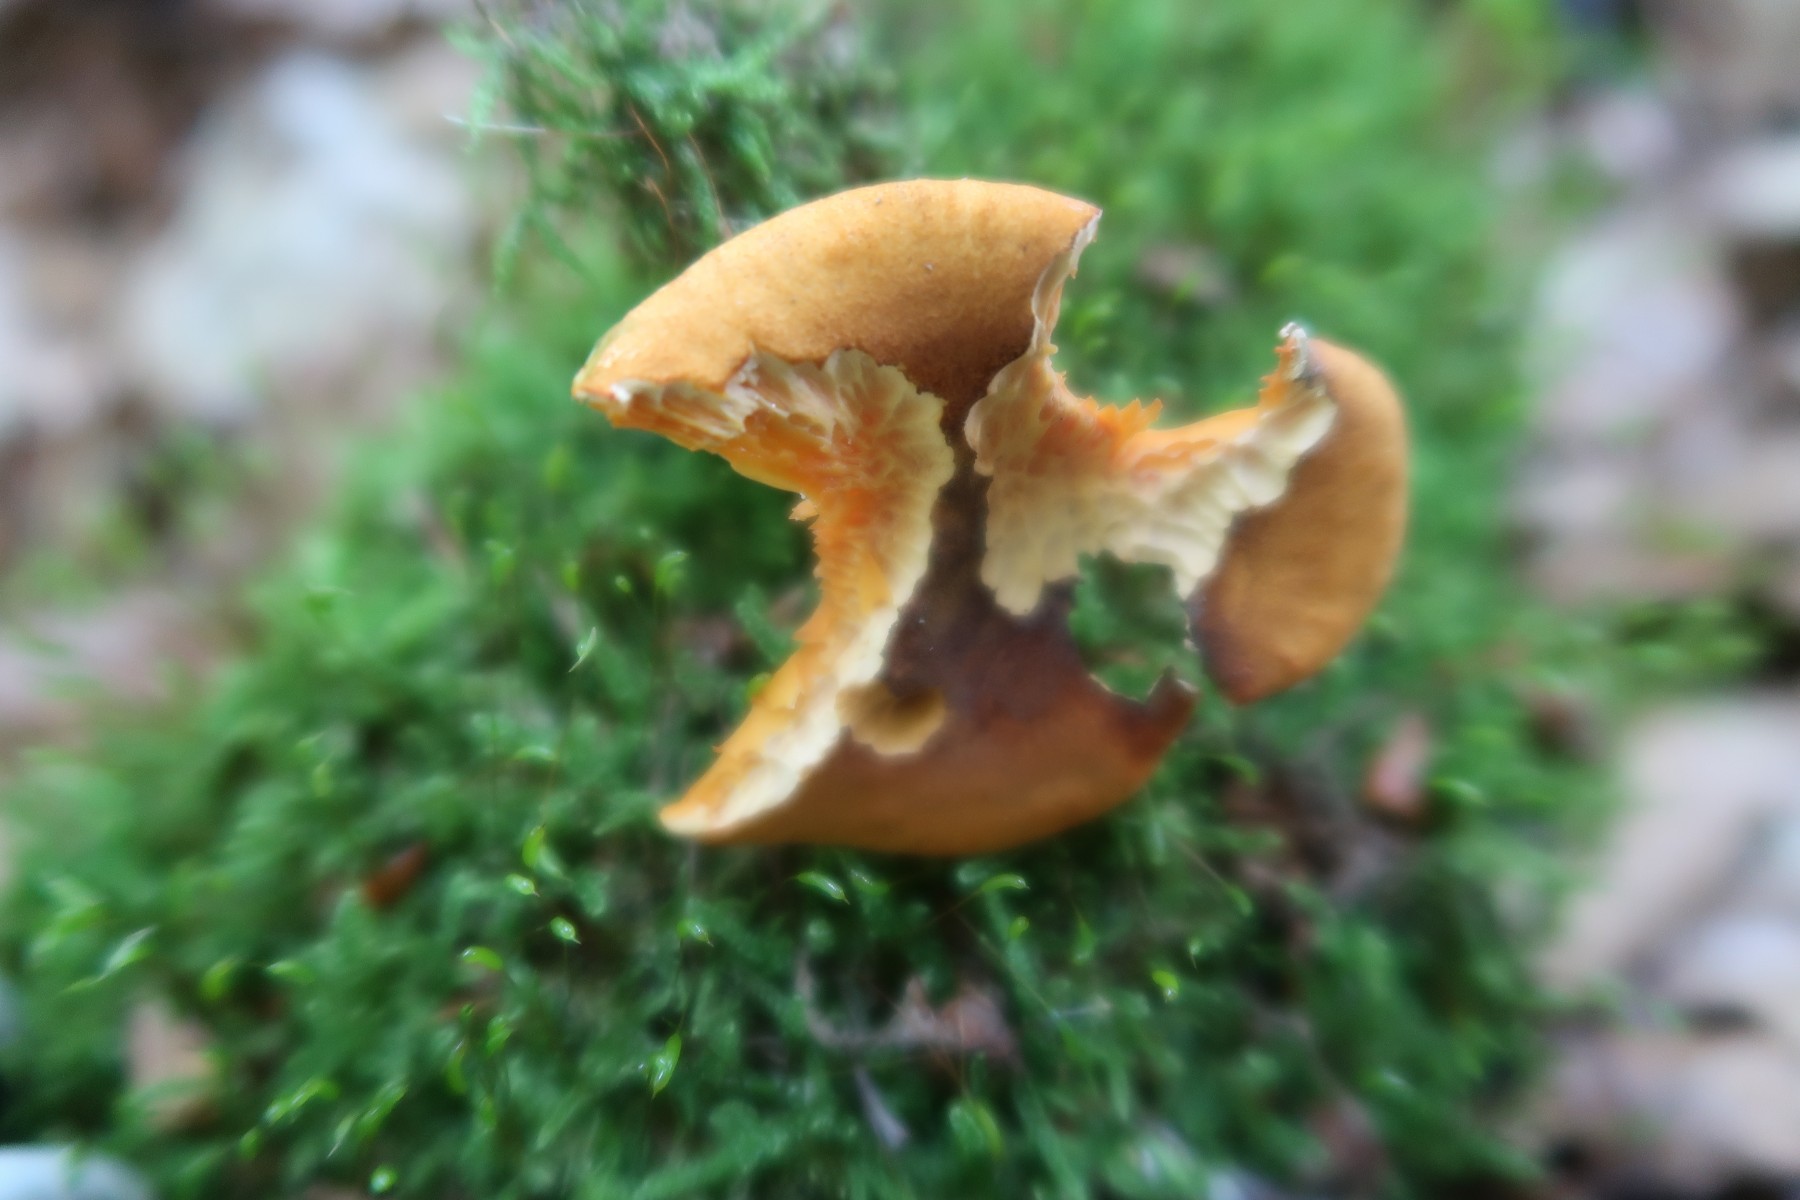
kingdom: Fungi
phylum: Basidiomycota
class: Agaricomycetes
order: Boletales
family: Hygrophoropsidaceae
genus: Hygrophoropsis
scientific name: Hygrophoropsis rufa
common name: brunfiltet orangekantarel
